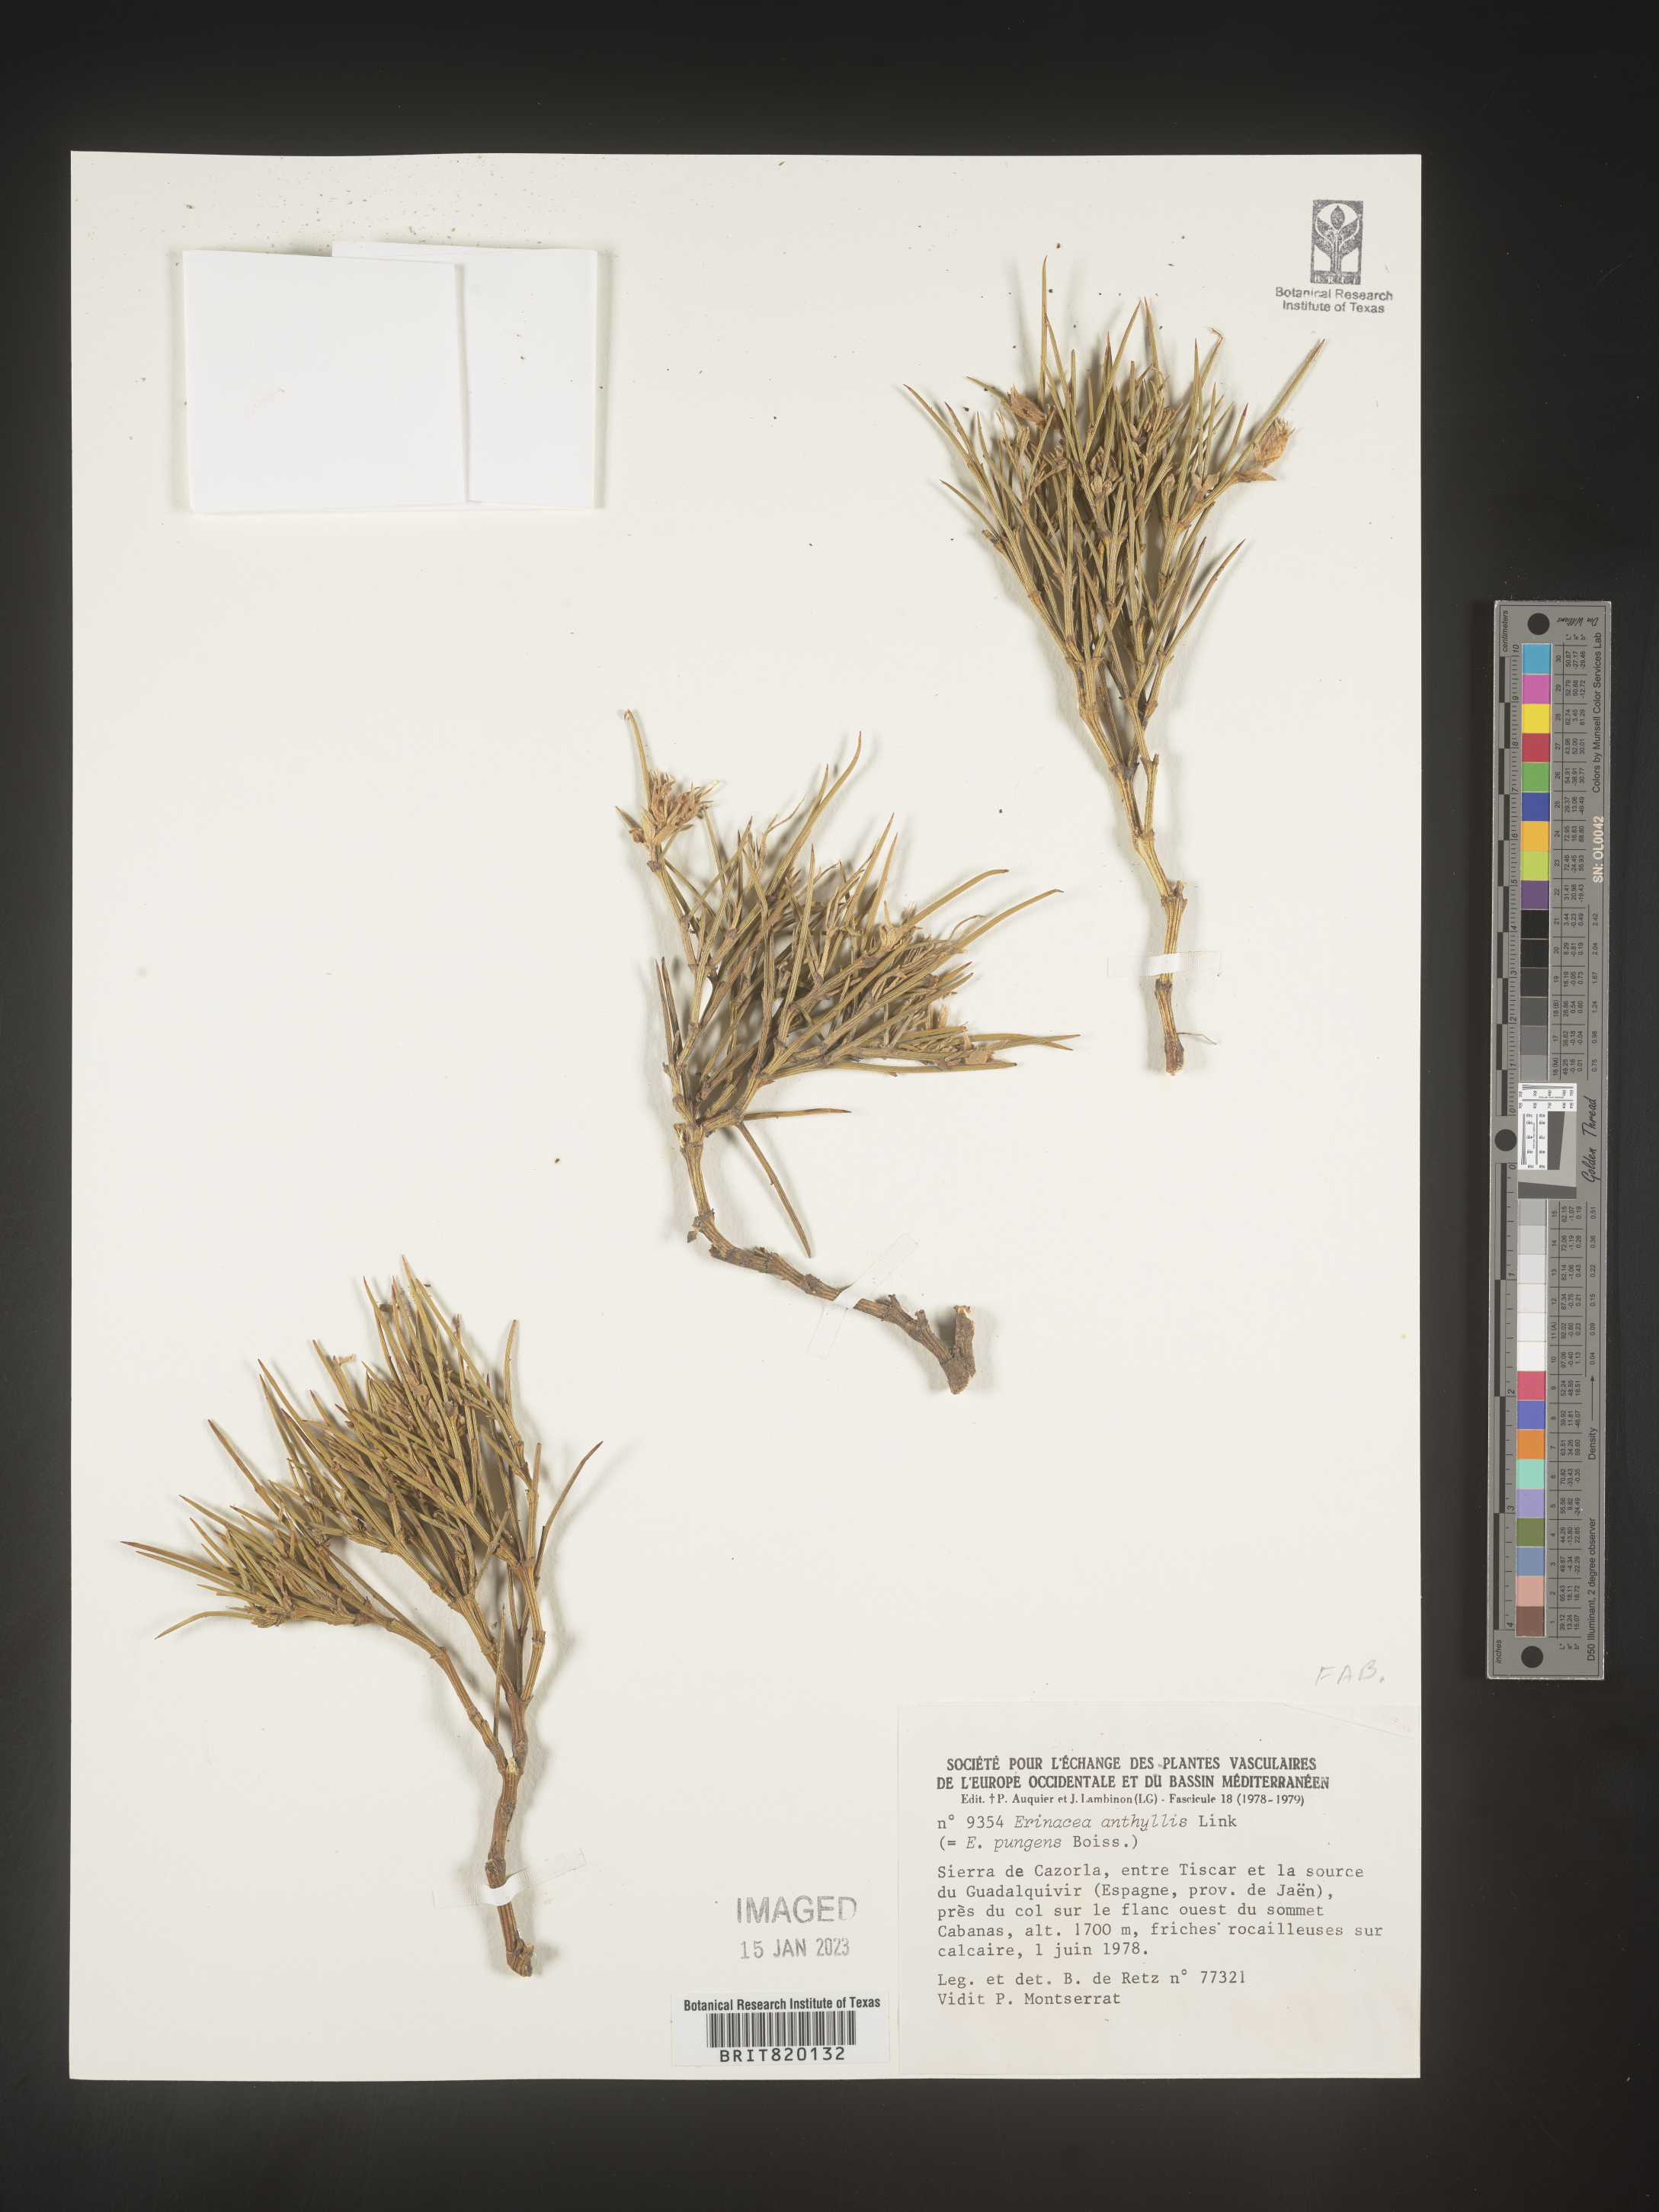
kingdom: Plantae
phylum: Tracheophyta
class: Magnoliopsida
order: Fabales
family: Fabaceae
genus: Erinacea
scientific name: Erinacea
